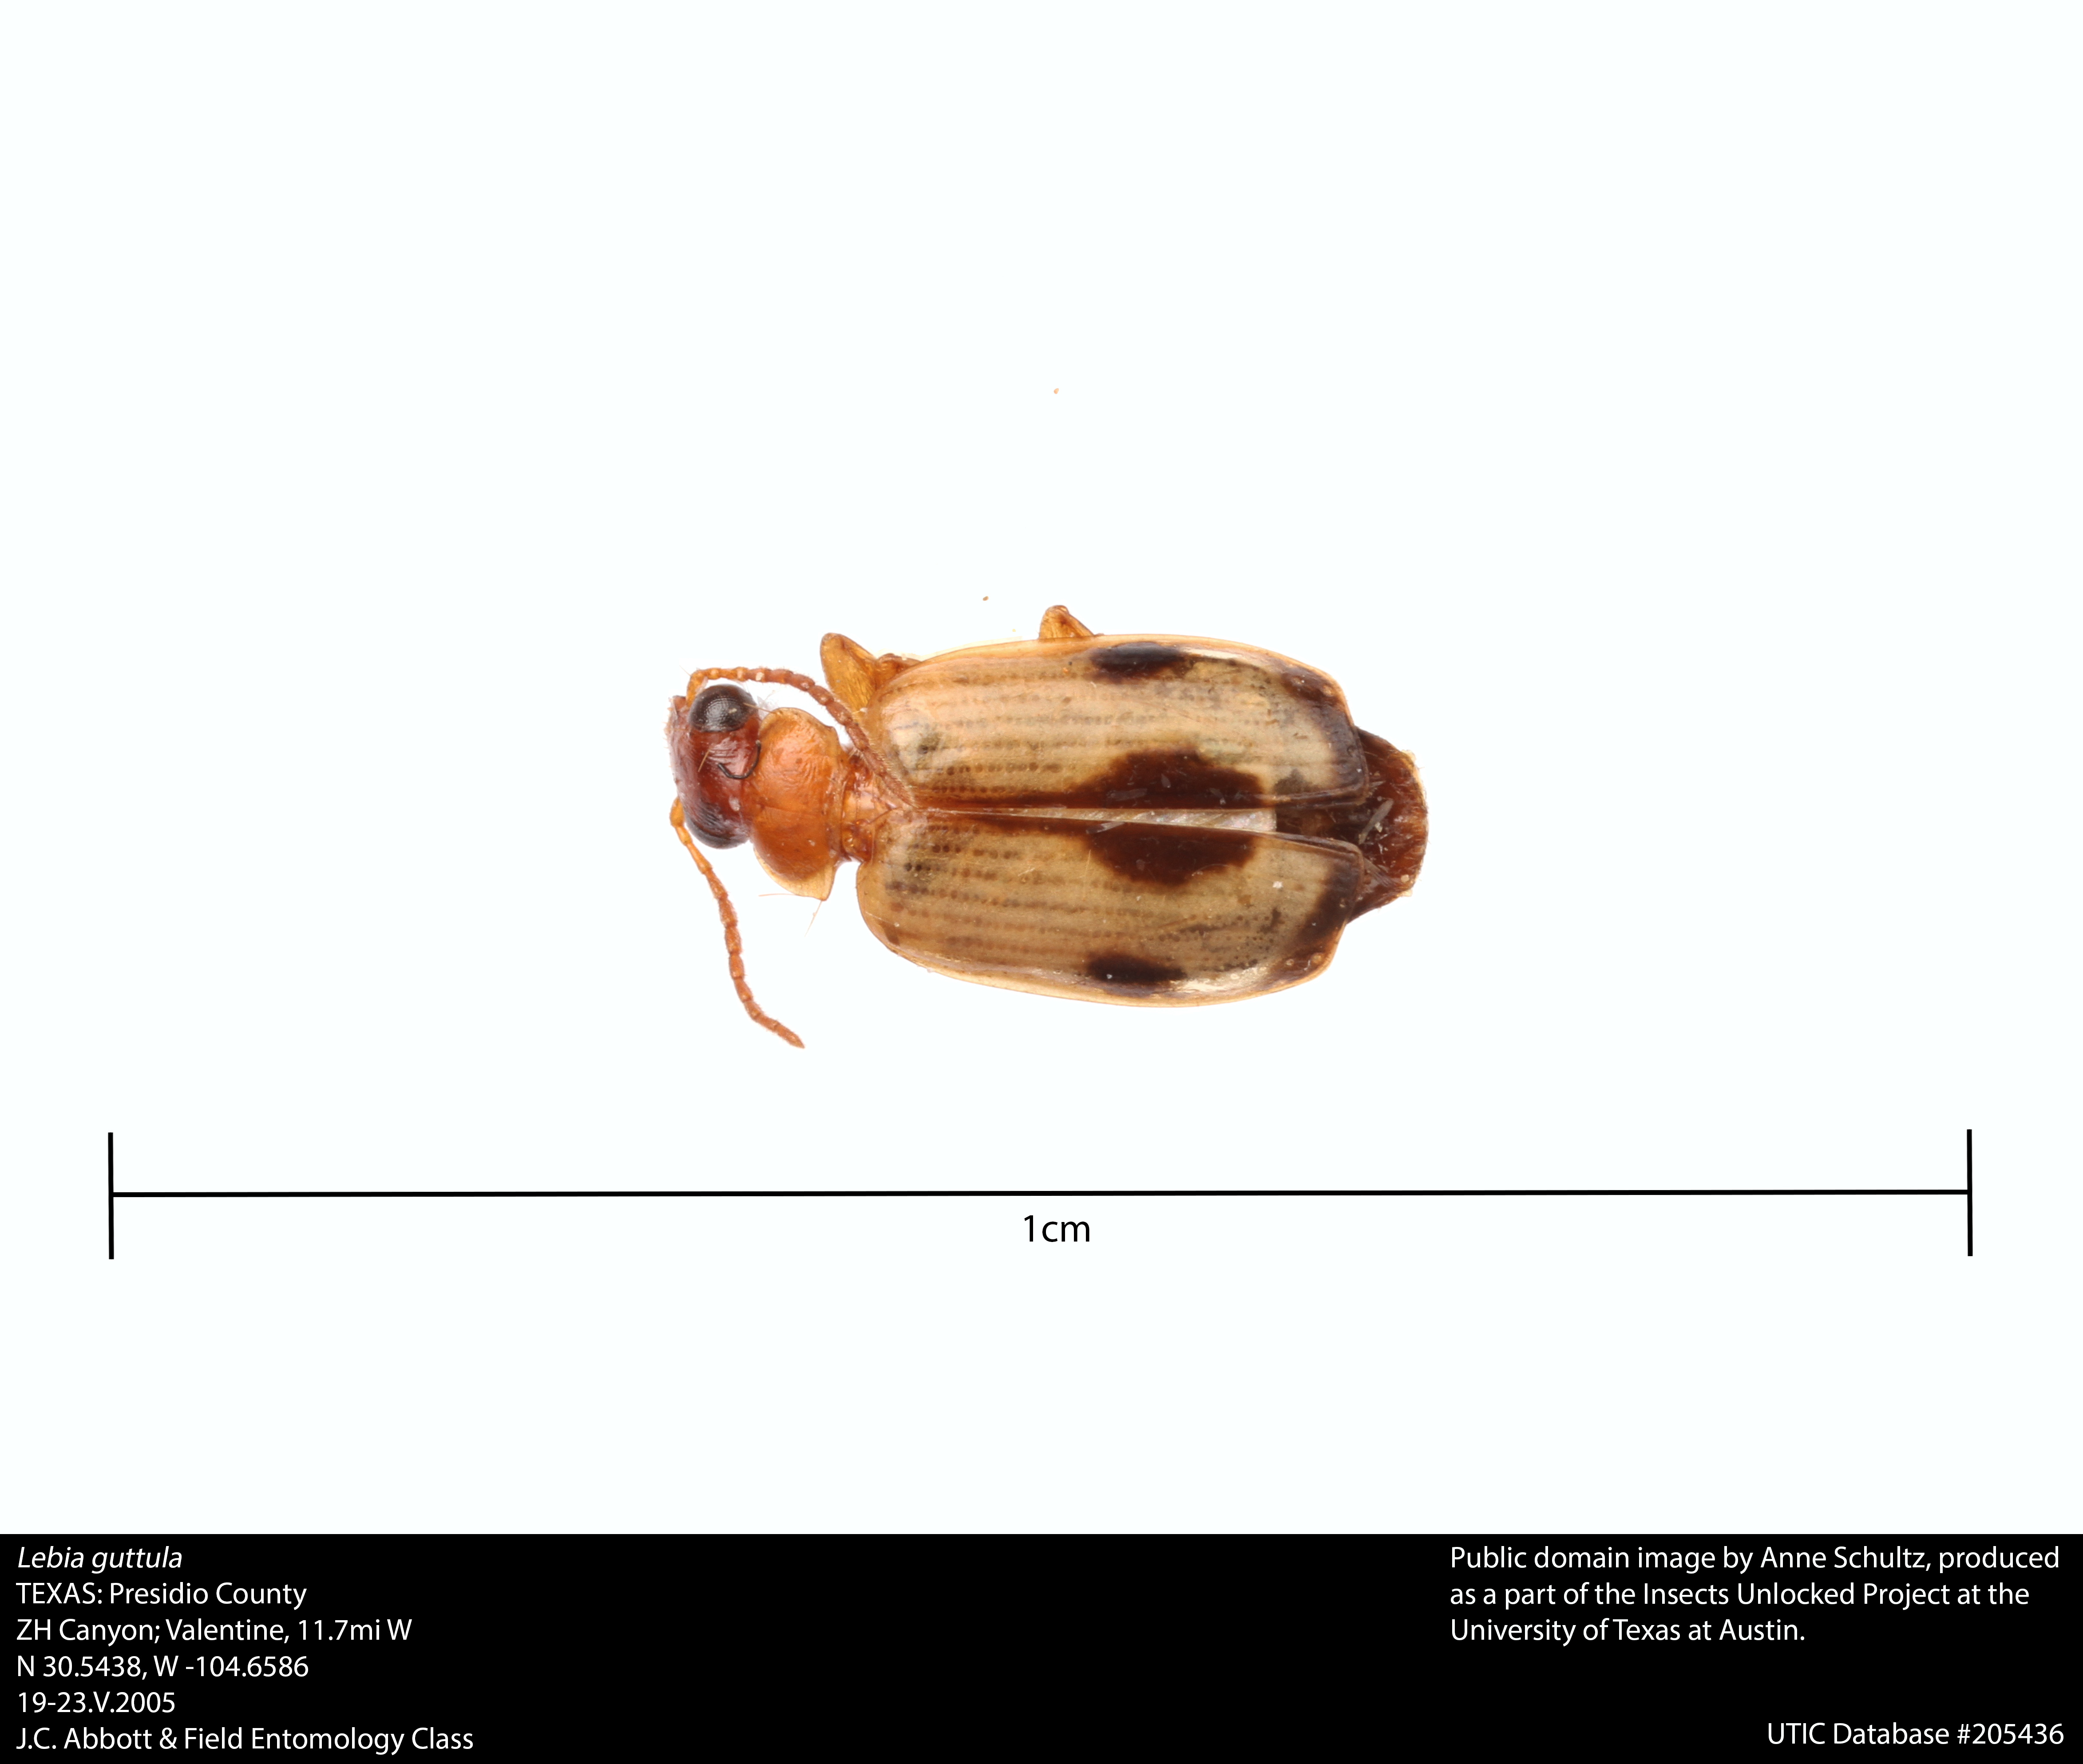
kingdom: Animalia
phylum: Arthropoda
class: Insecta
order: Coleoptera
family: Carabidae
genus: Lebia
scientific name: Lebia guttula
